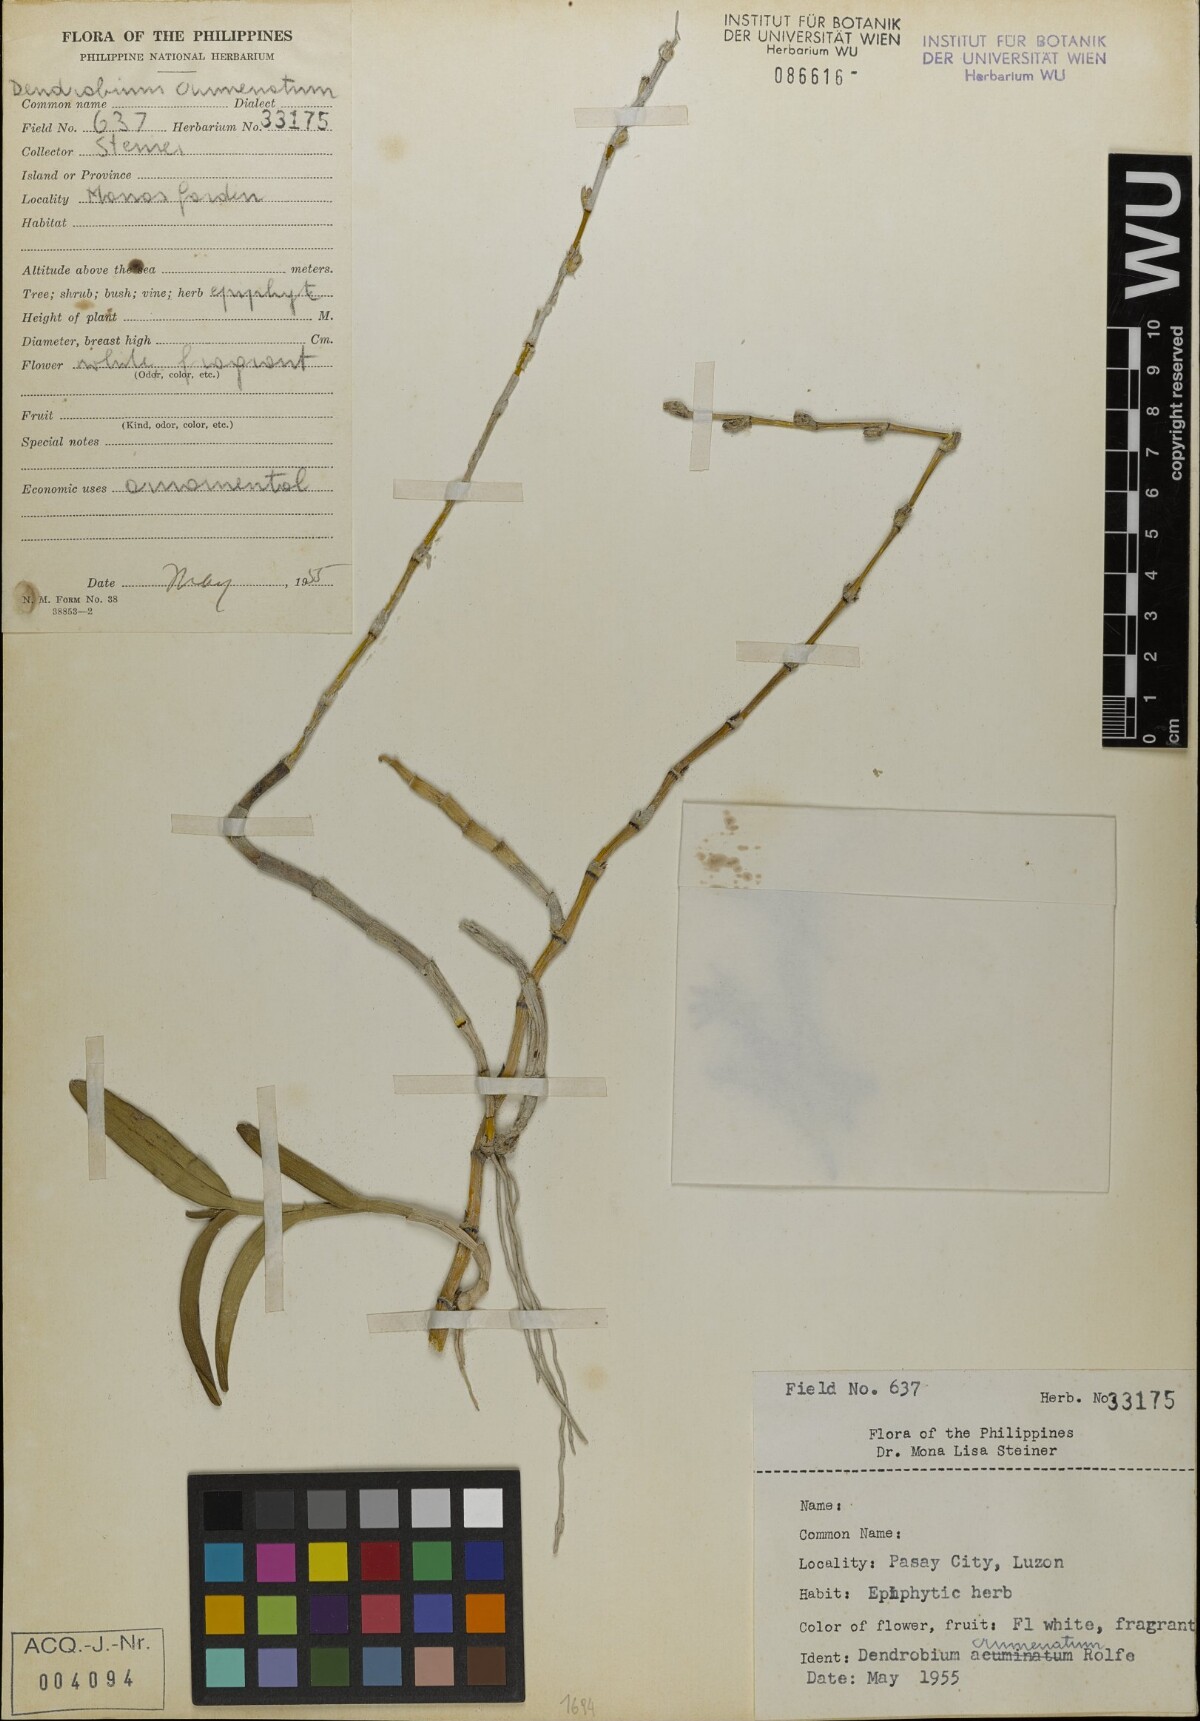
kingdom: Plantae
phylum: Tracheophyta
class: Liliopsida
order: Asparagales
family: Orchidaceae
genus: Dendrobium
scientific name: Dendrobium crumenatum
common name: Orchid
